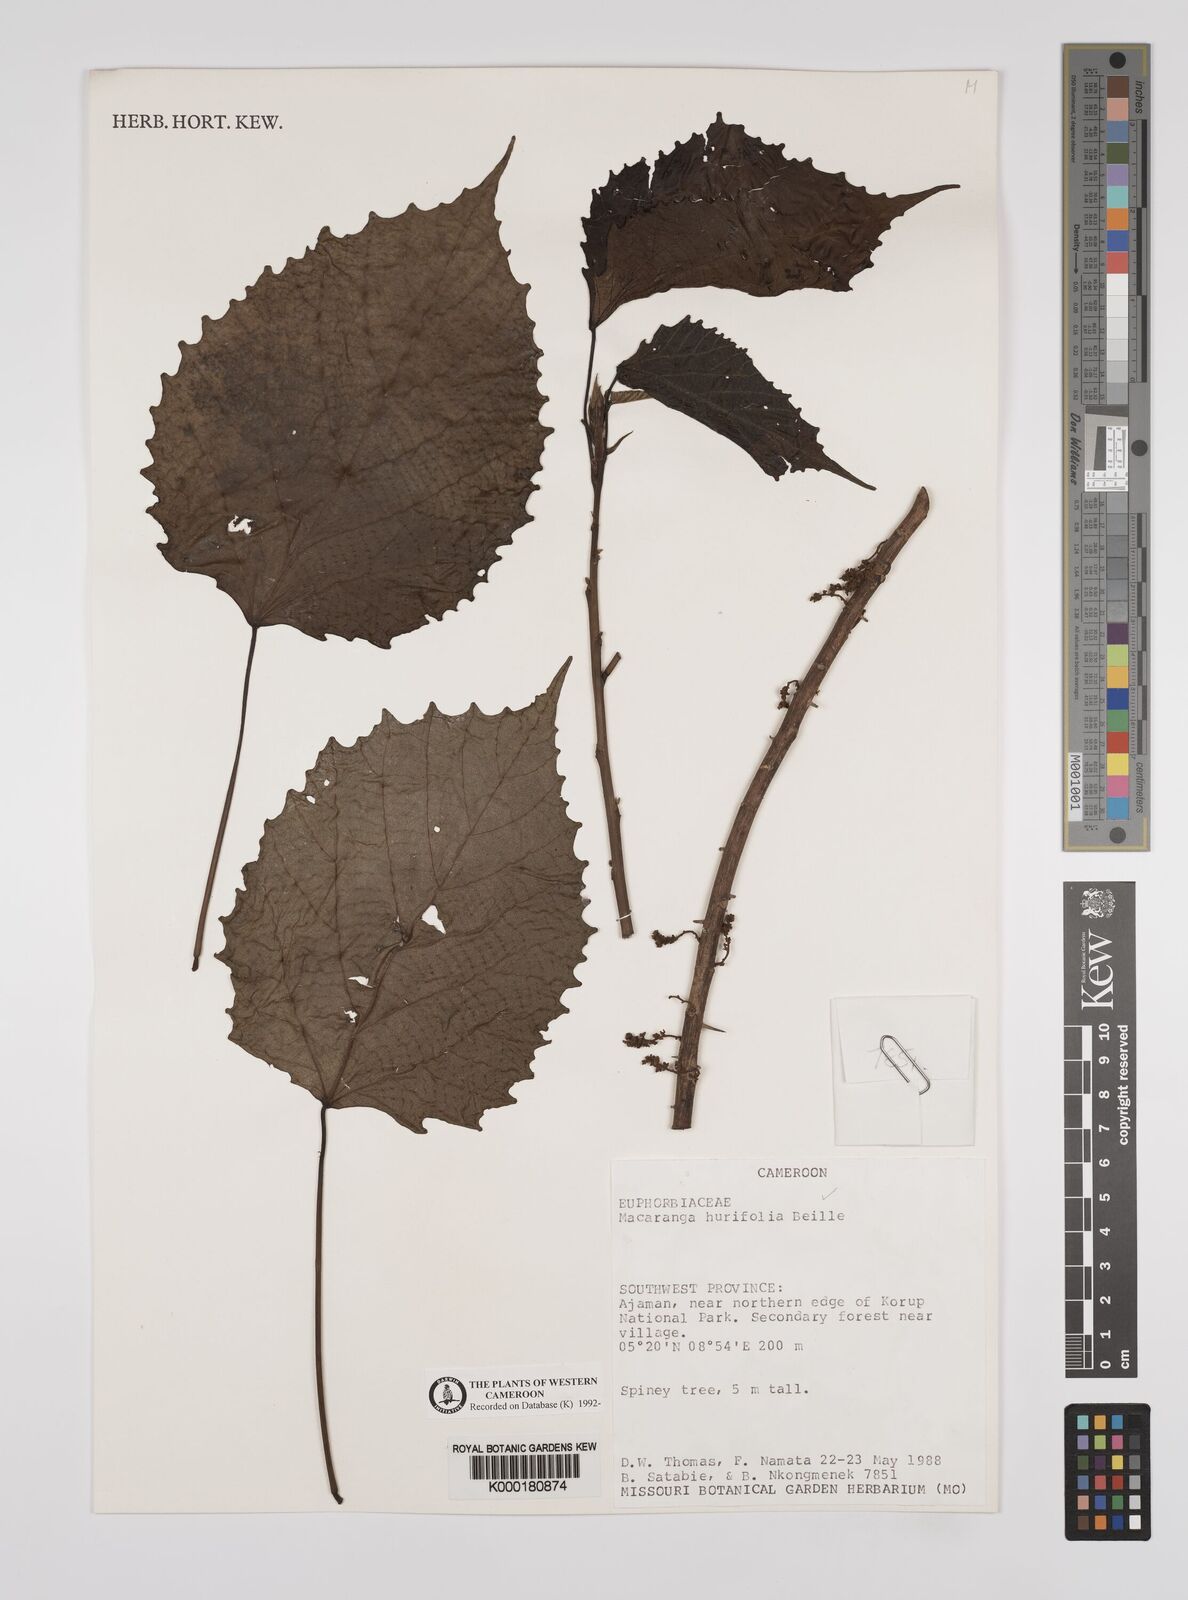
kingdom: Plantae
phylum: Tracheophyta
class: Magnoliopsida
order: Malpighiales
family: Euphorbiaceae
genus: Macaranga
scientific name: Macaranga hurifolia
